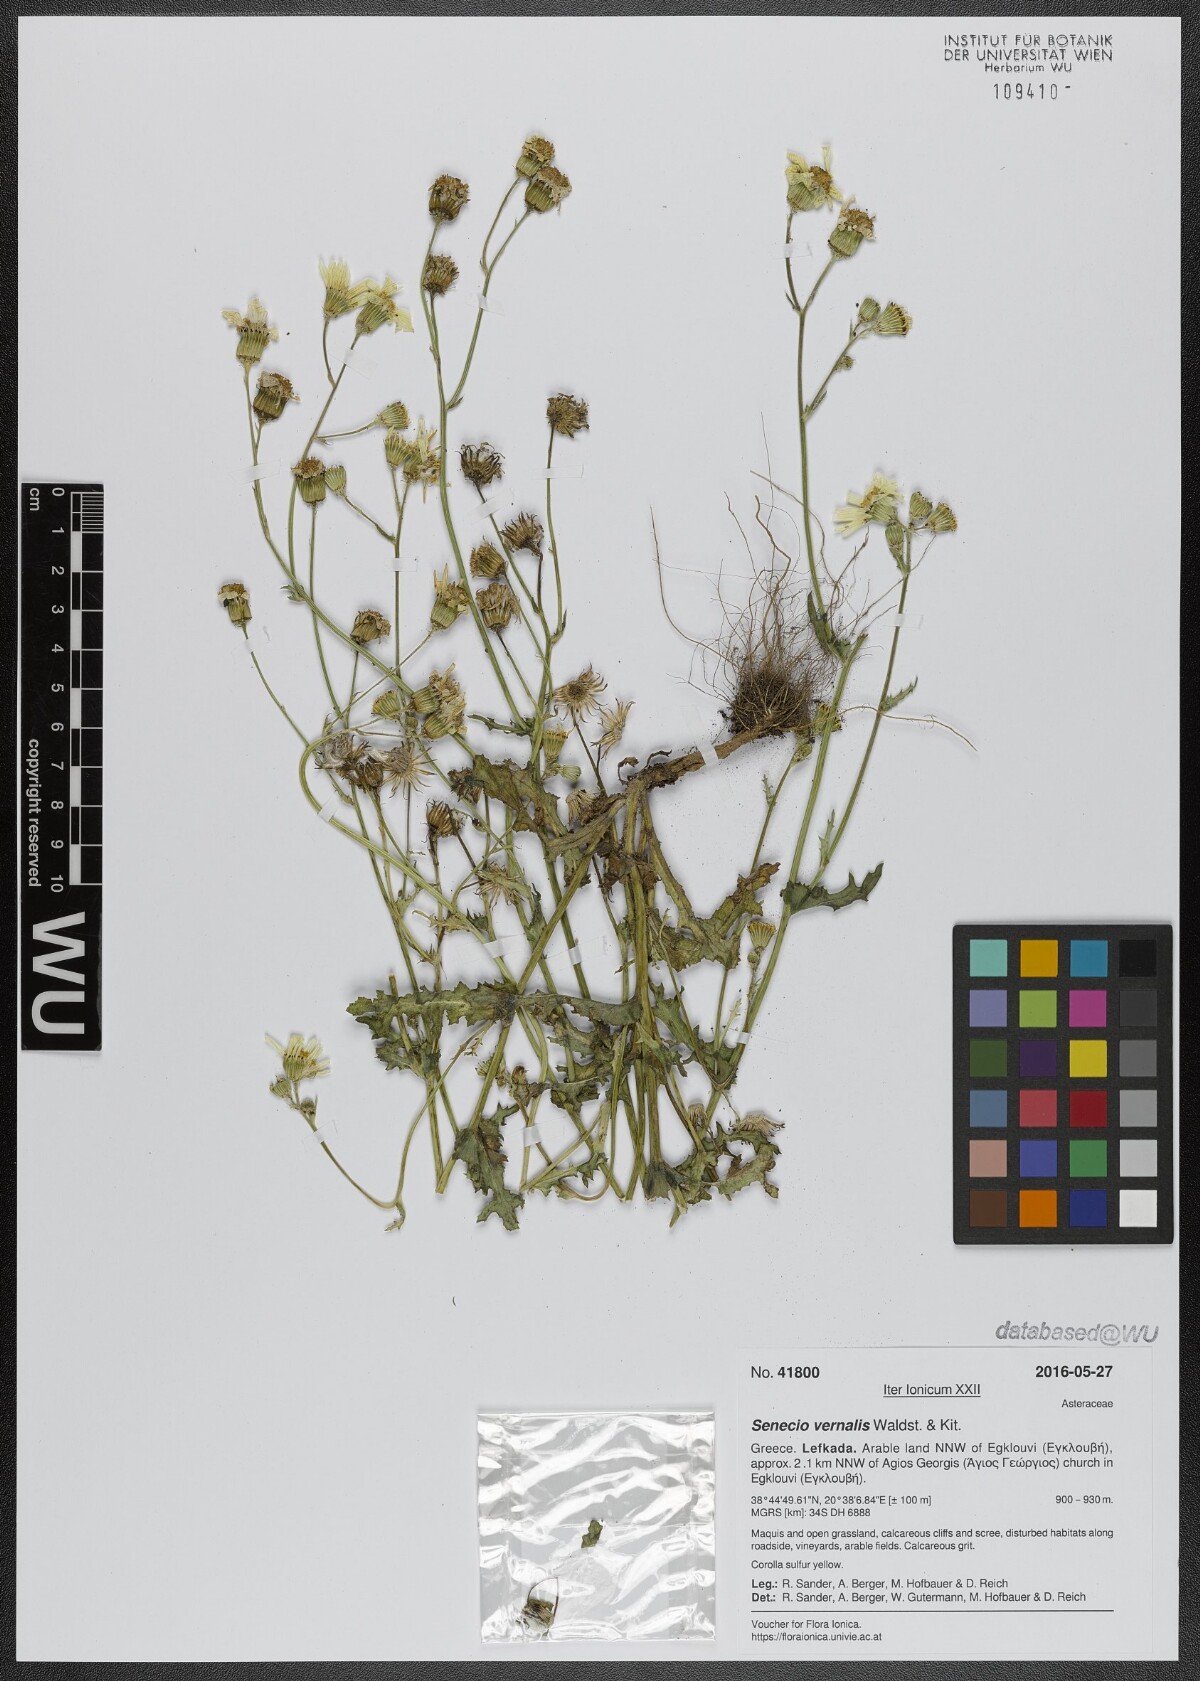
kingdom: Plantae
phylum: Tracheophyta
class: Magnoliopsida
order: Asterales
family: Asteraceae
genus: Senecio
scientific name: Senecio vernalis
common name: Eastern groundsel
